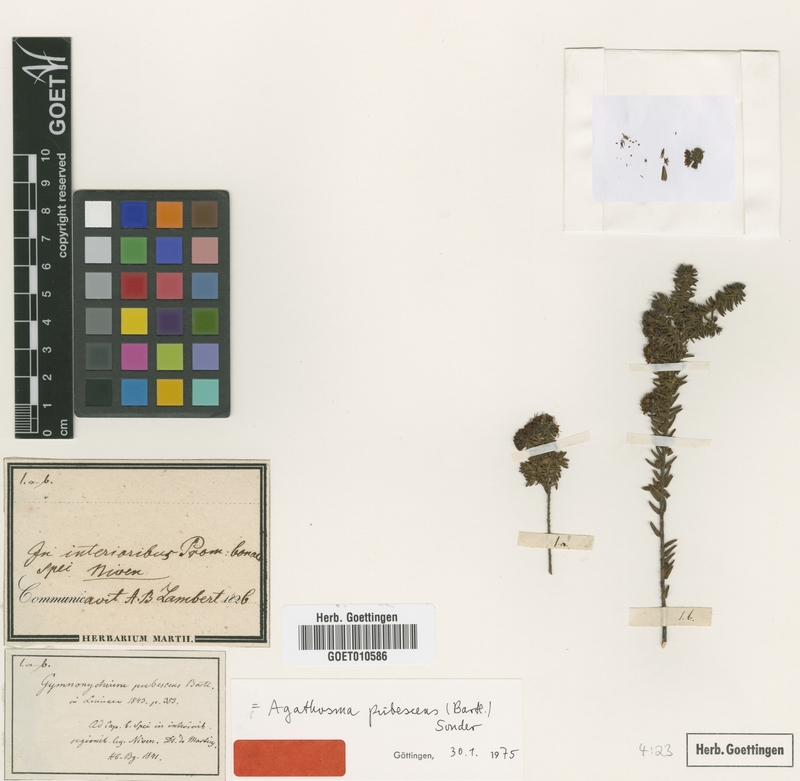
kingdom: Plantae
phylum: Tracheophyta
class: Magnoliopsida
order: Sapindales
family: Rutaceae
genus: Agathosma
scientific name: Agathosma elegans
